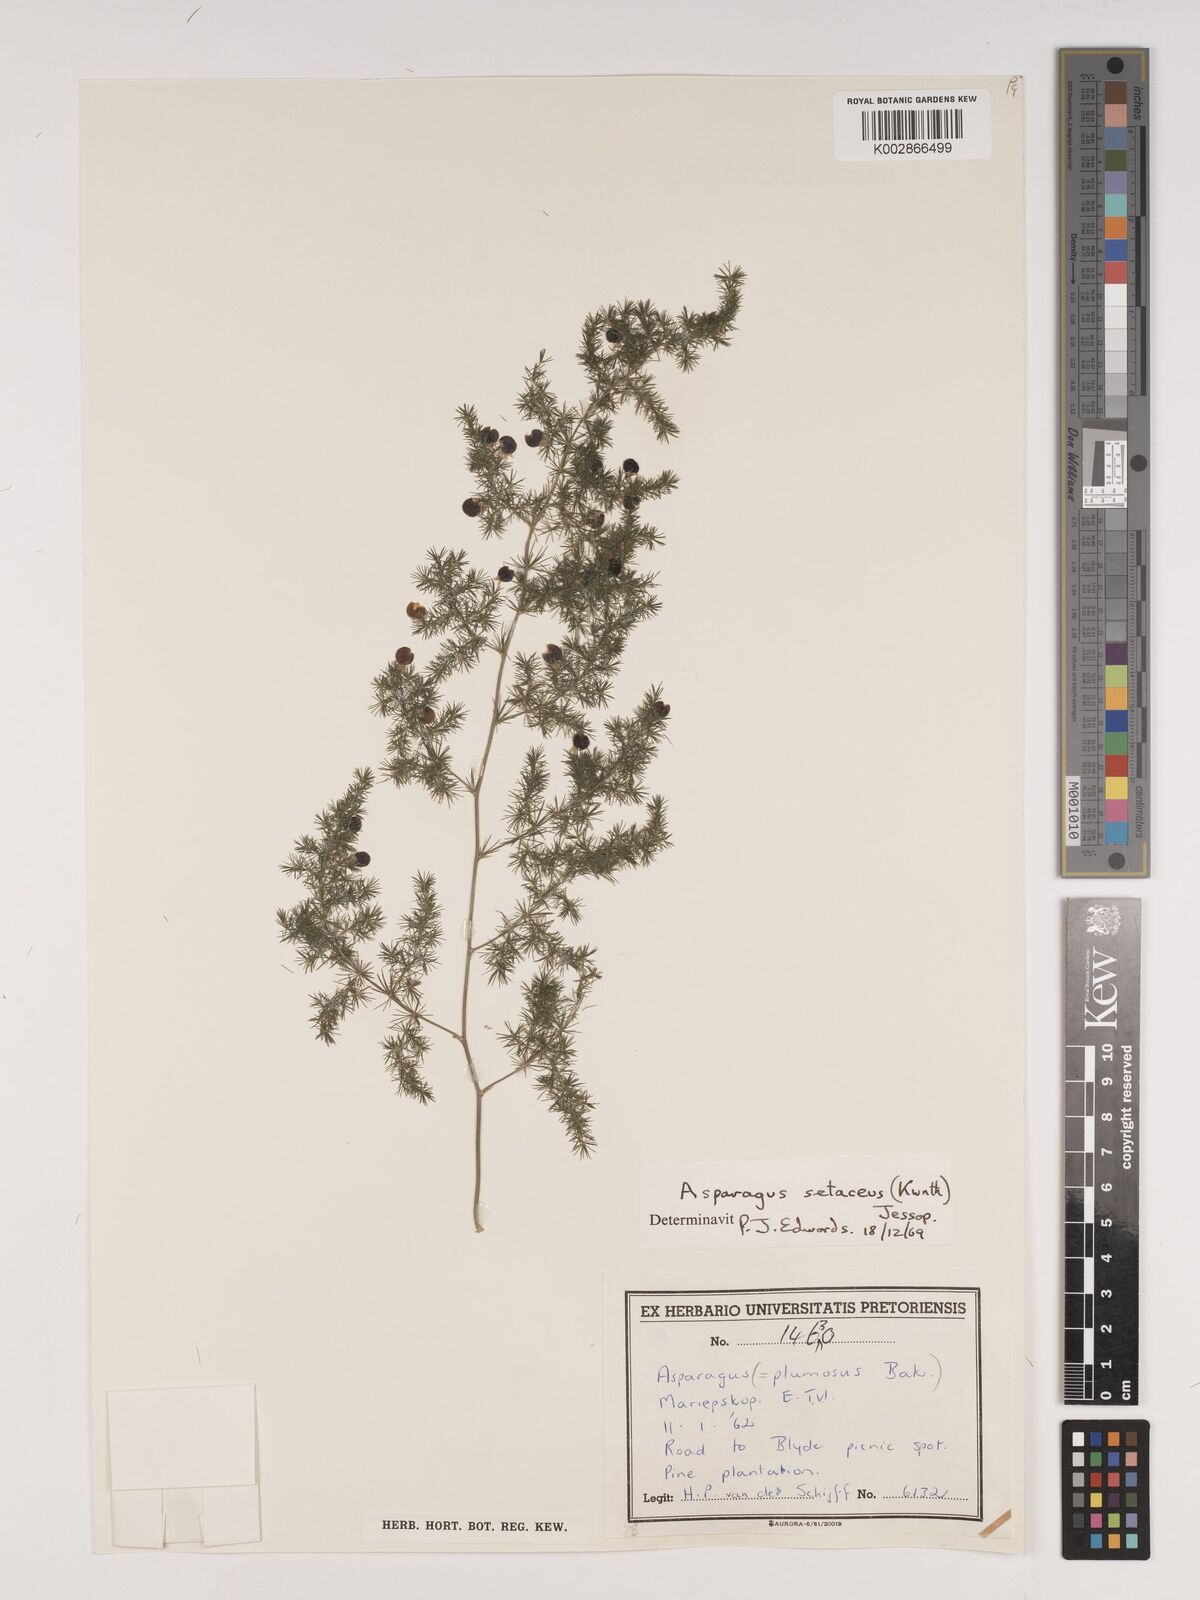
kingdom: Plantae
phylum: Tracheophyta
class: Liliopsida
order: Asparagales
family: Asparagaceae
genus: Asparagus
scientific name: Asparagus setaceus
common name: Common asparagus fern
